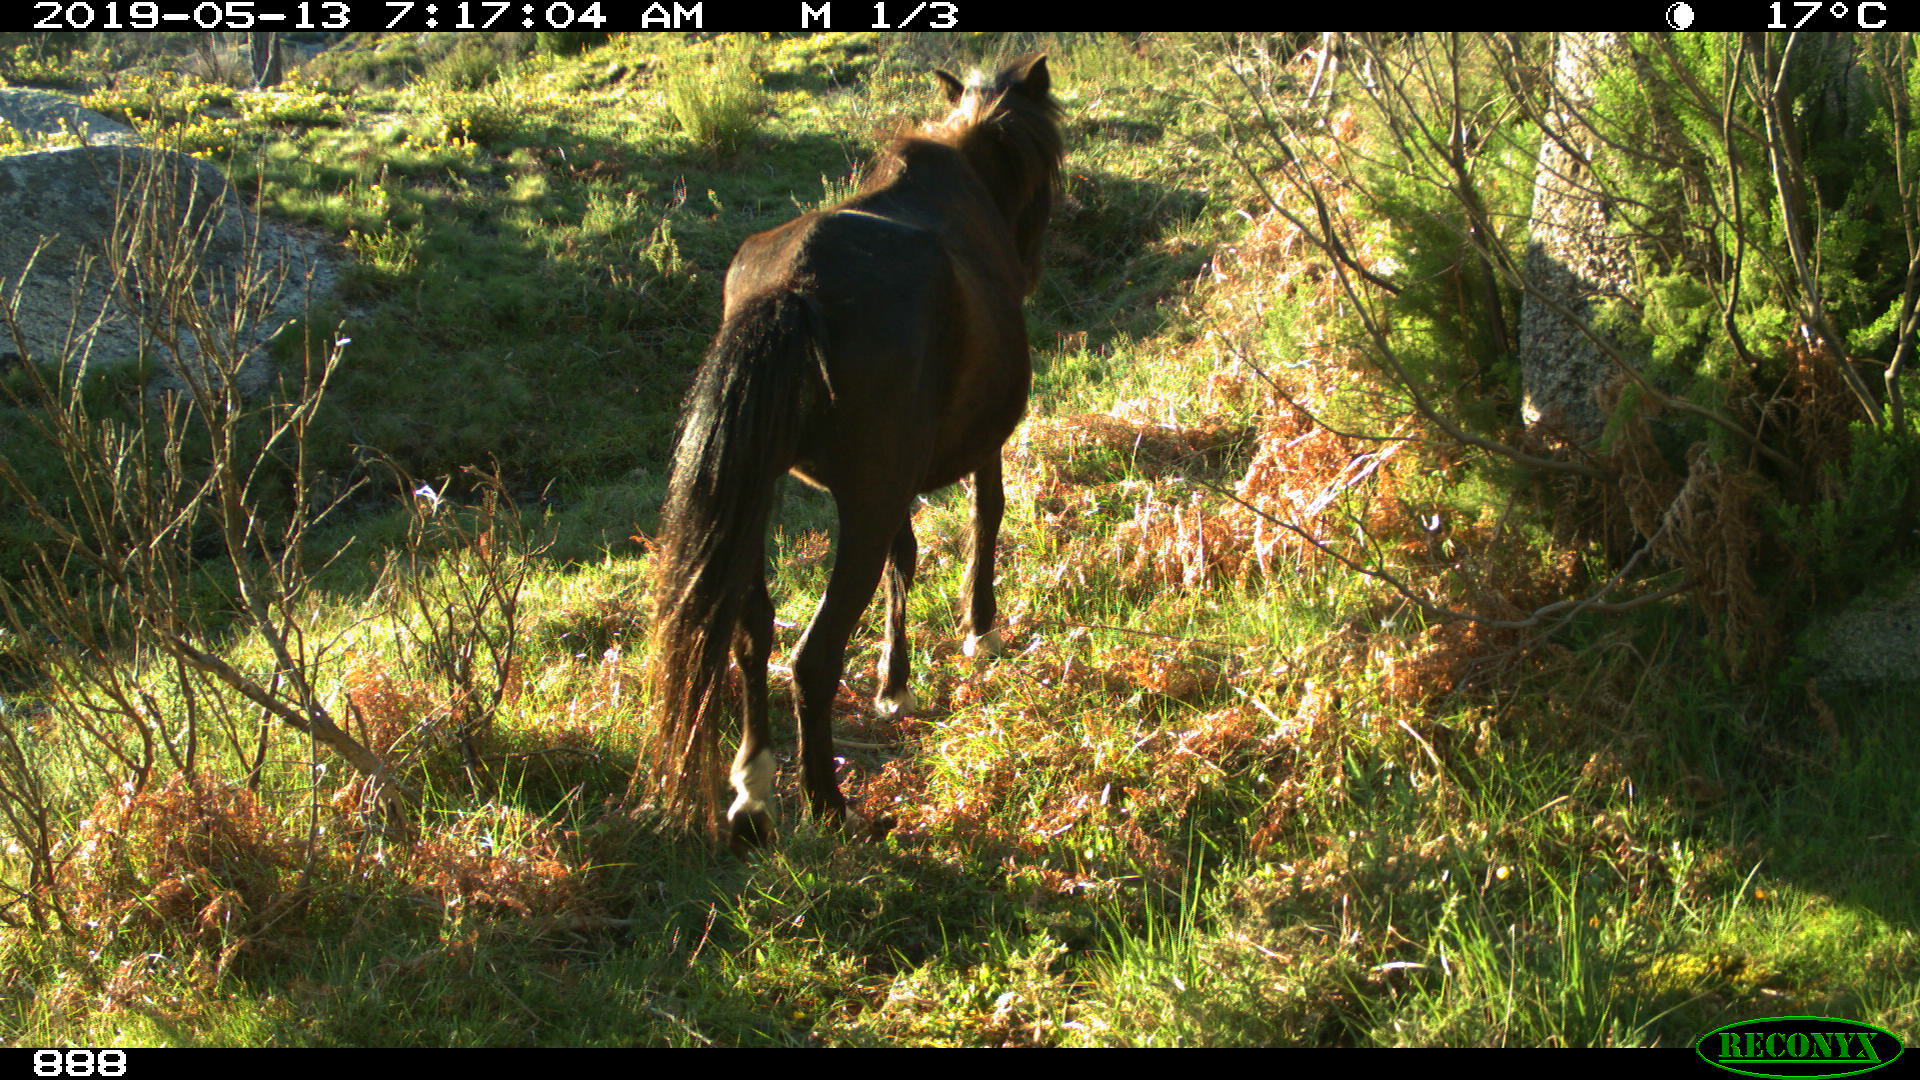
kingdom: Animalia
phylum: Chordata
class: Mammalia
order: Perissodactyla
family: Equidae
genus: Equus
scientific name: Equus caballus
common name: Horse
